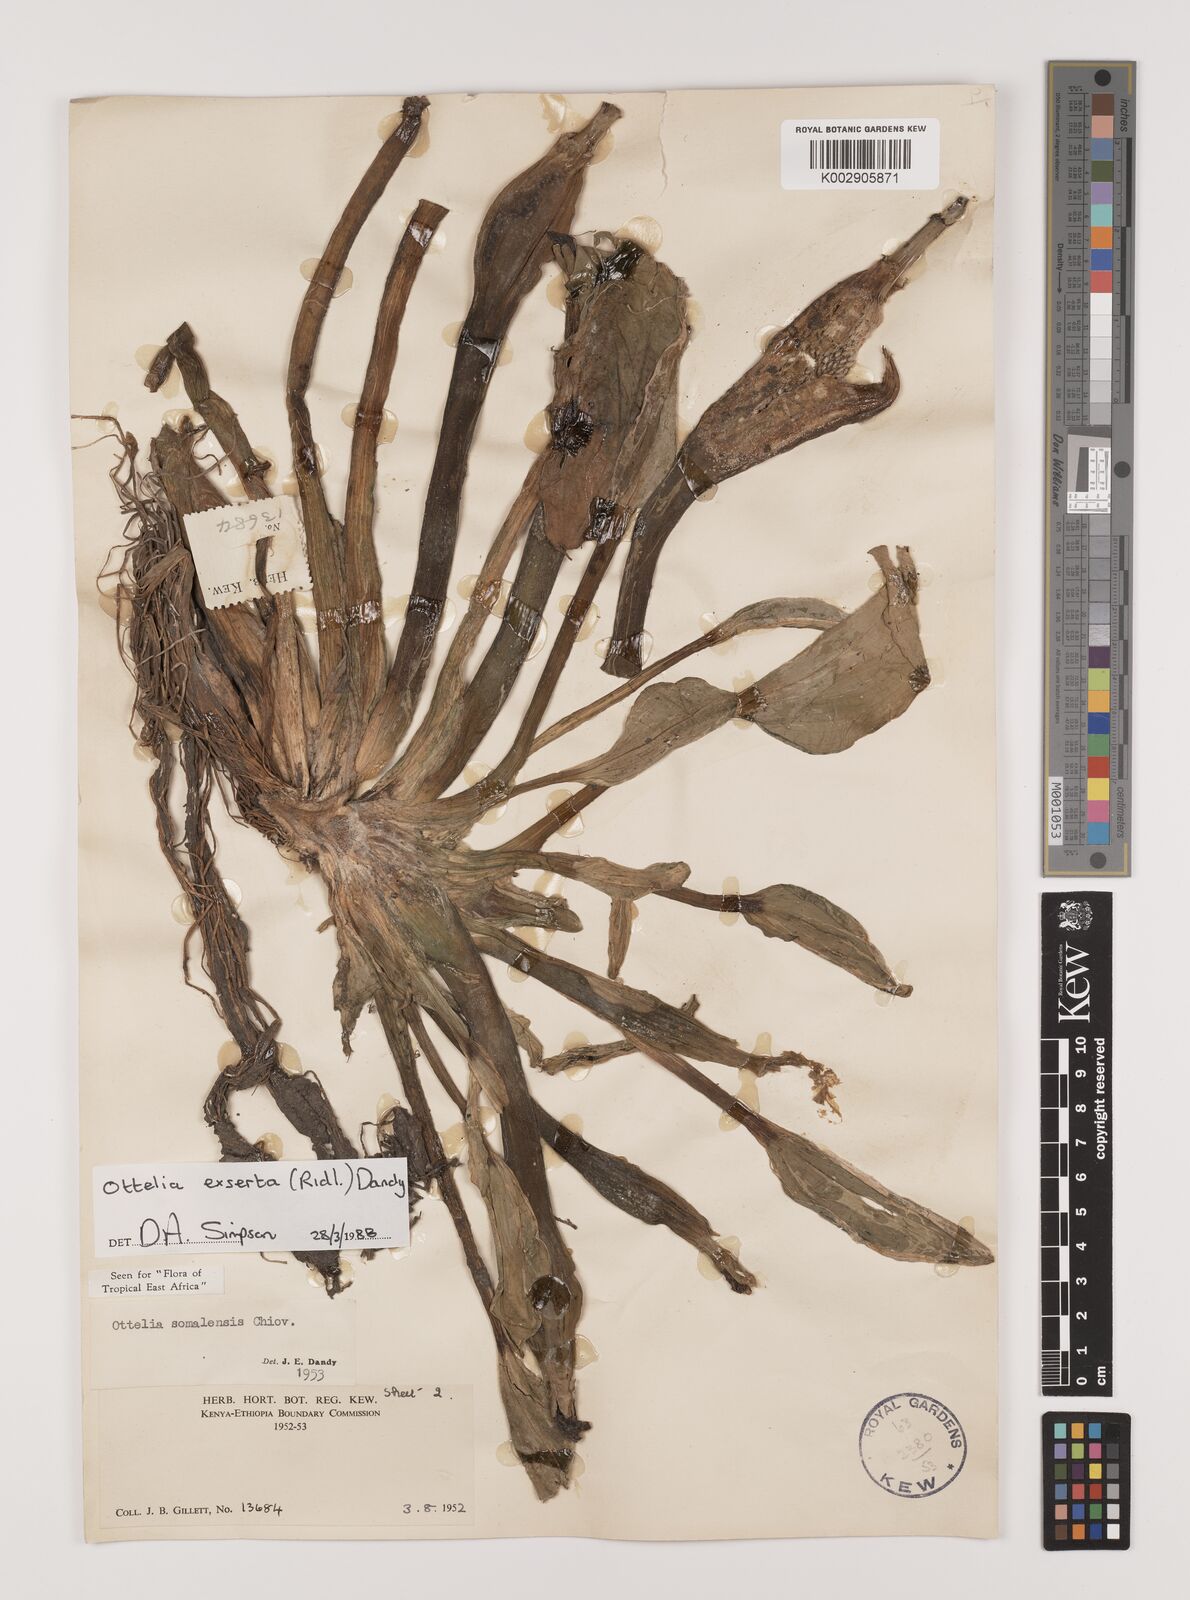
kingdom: Plantae
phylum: Tracheophyta
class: Liliopsida
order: Alismatales
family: Hydrocharitaceae
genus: Ottelia
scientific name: Ottelia exserta
